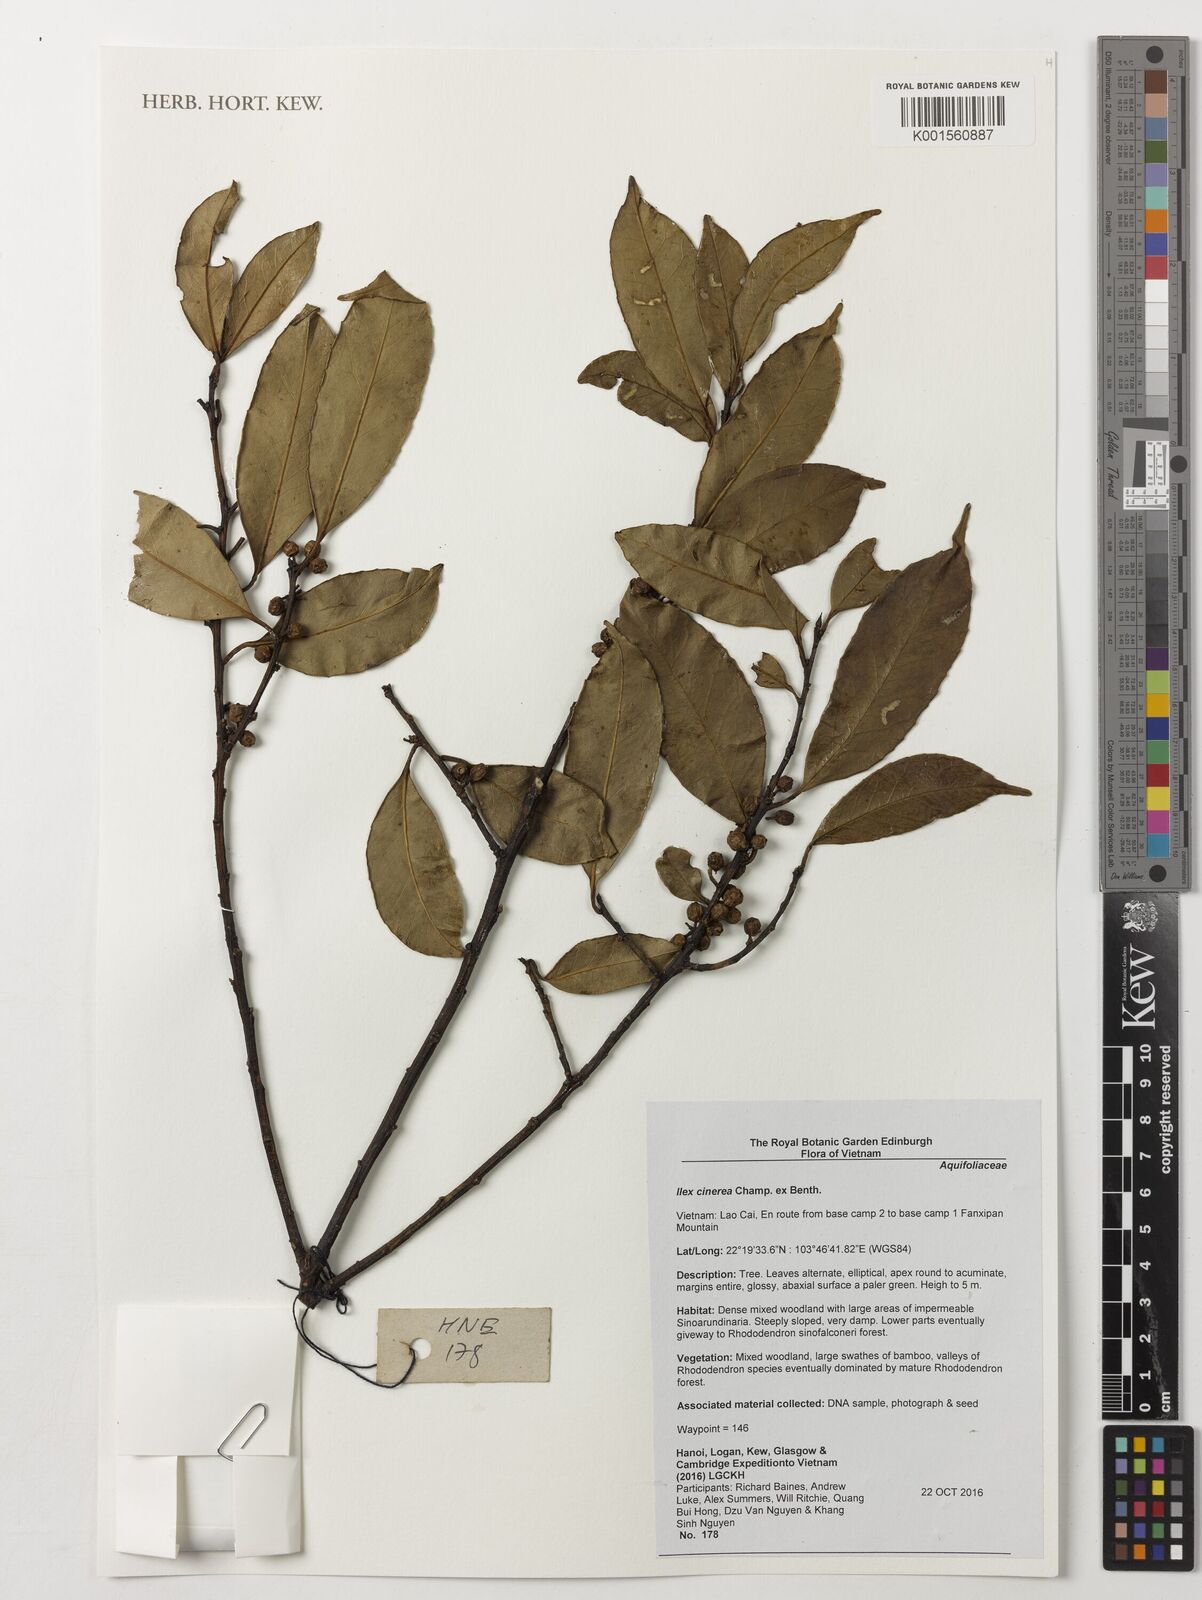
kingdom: Plantae
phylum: Tracheophyta
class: Magnoliopsida
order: Aquifoliales
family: Aquifoliaceae
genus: Ilex
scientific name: Ilex cinerea
